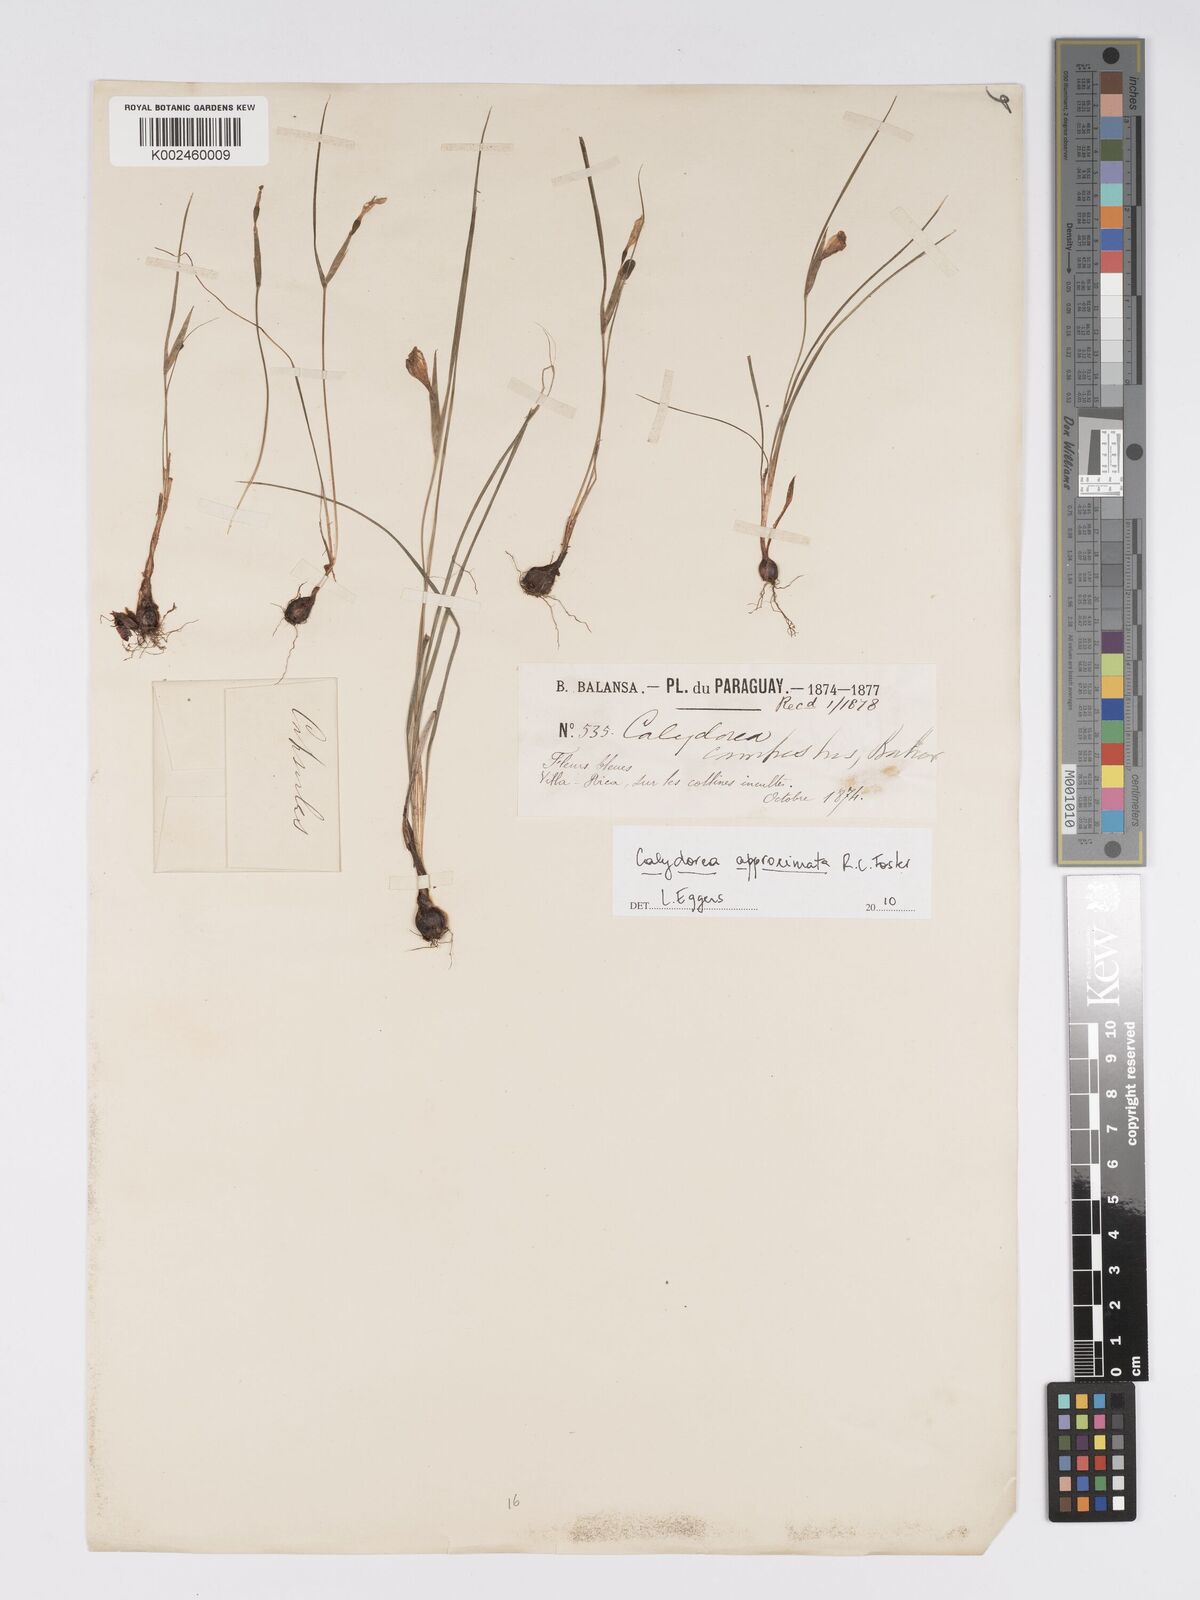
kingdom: Plantae
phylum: Tracheophyta
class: Liliopsida
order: Asparagales
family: Iridaceae
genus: Calydorea
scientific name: Calydorea approximata
